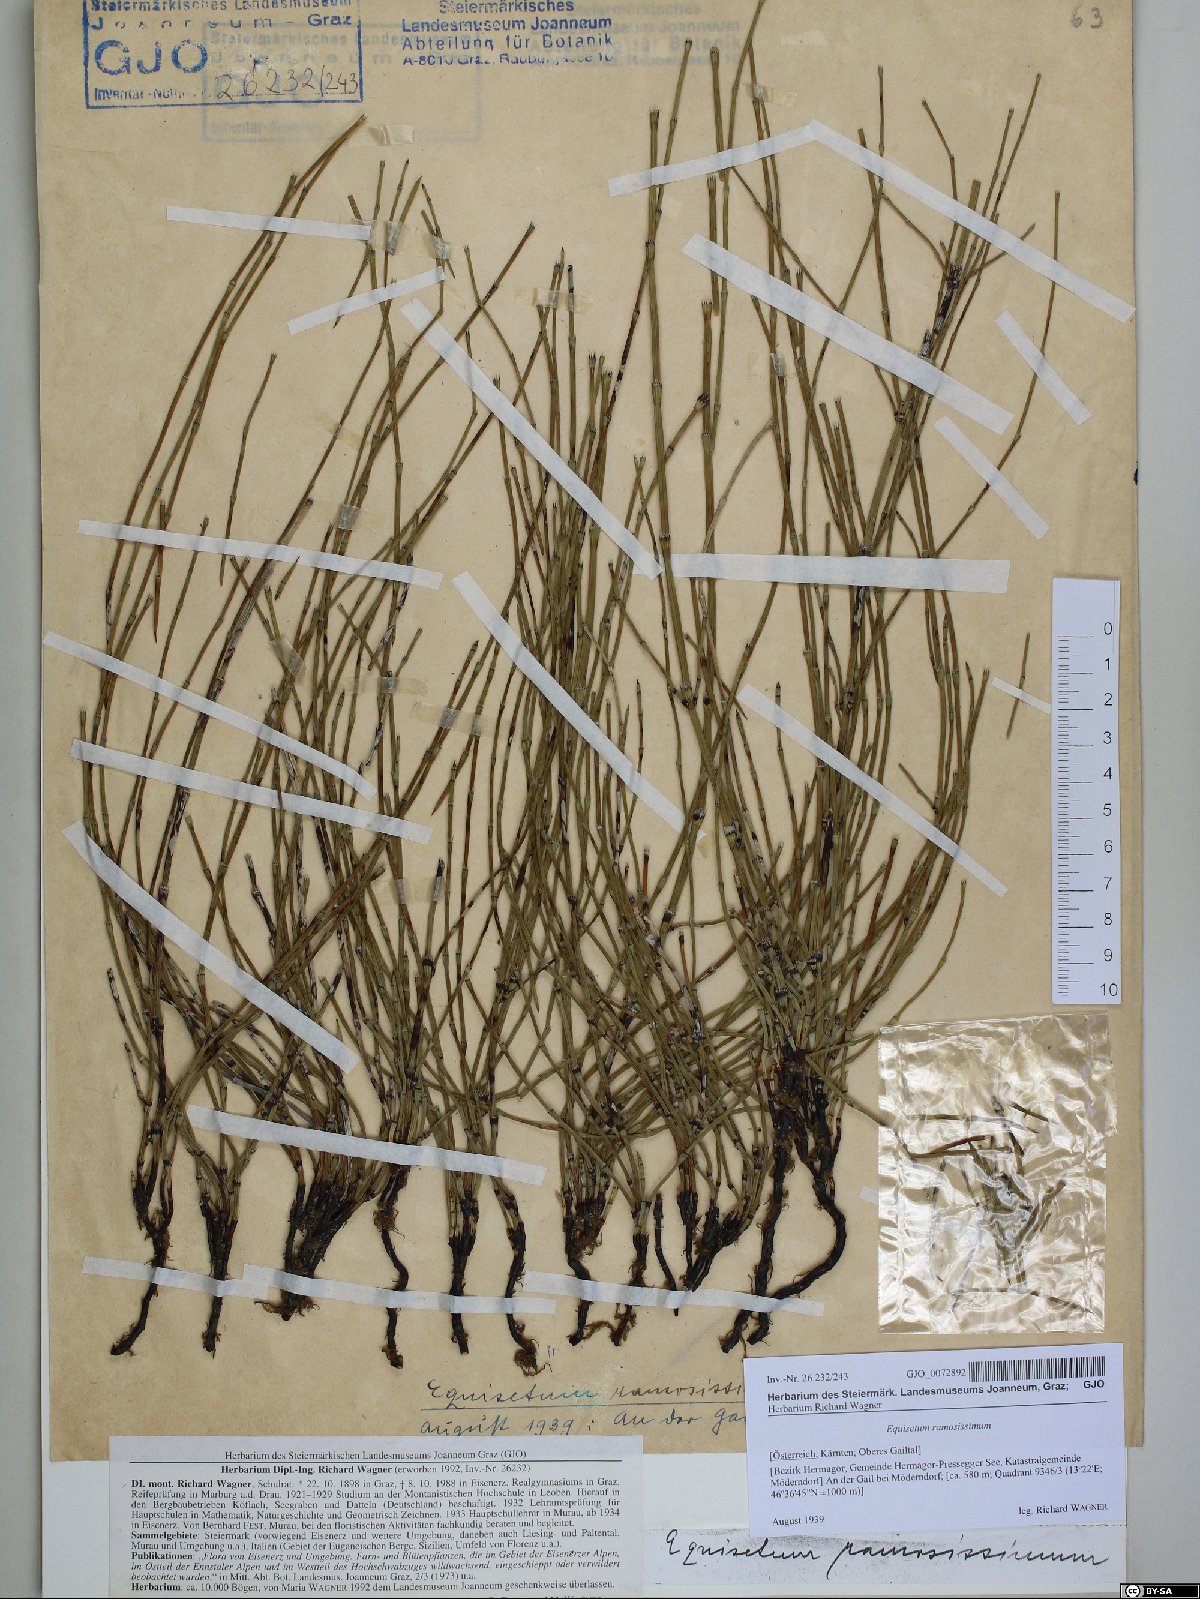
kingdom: Plantae
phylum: Tracheophyta
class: Polypodiopsida
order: Equisetales
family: Equisetaceae
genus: Equisetum
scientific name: Equisetum ramosissimum
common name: Branched horsetail
